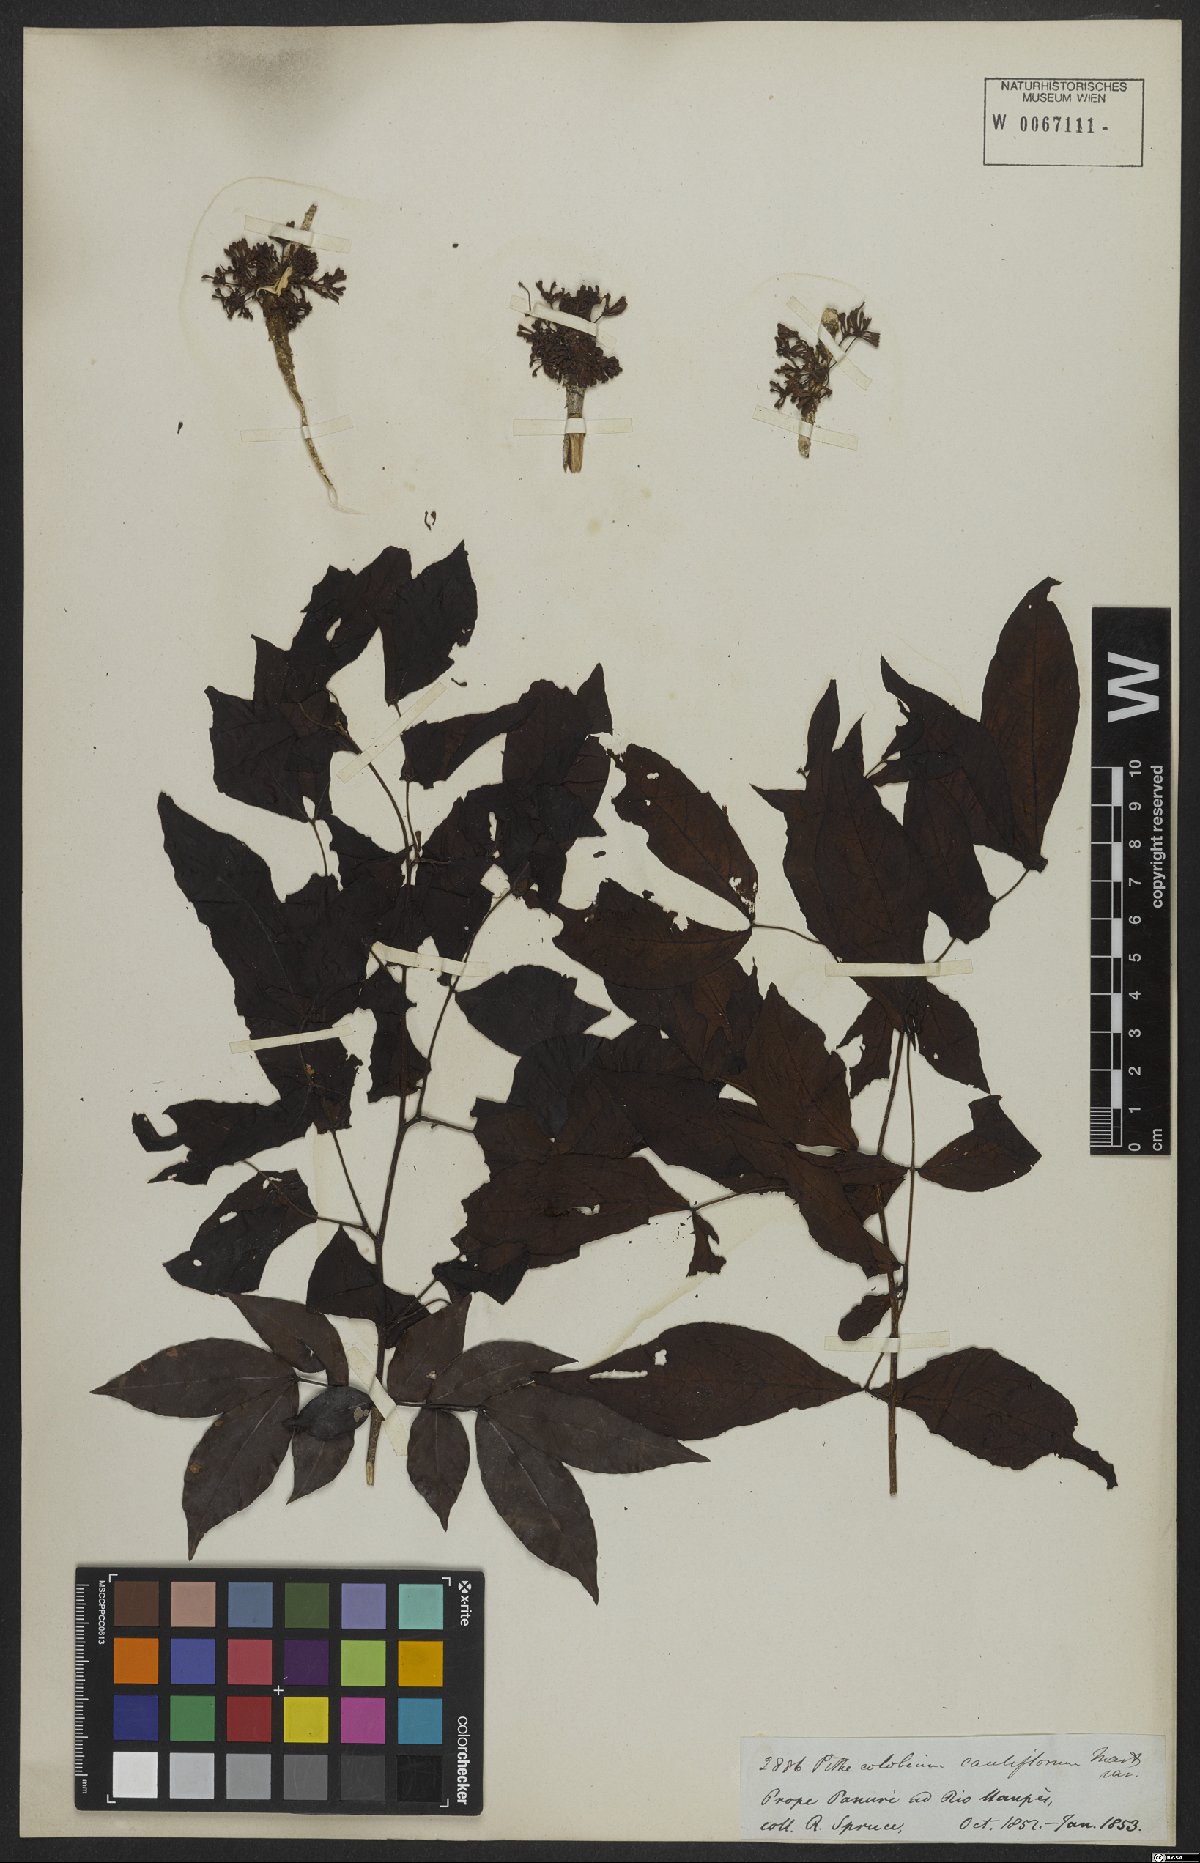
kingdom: Plantae
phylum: Tracheophyta
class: Magnoliopsida
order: Fabales
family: Fabaceae
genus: Zygia
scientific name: Zygia cauliflora
